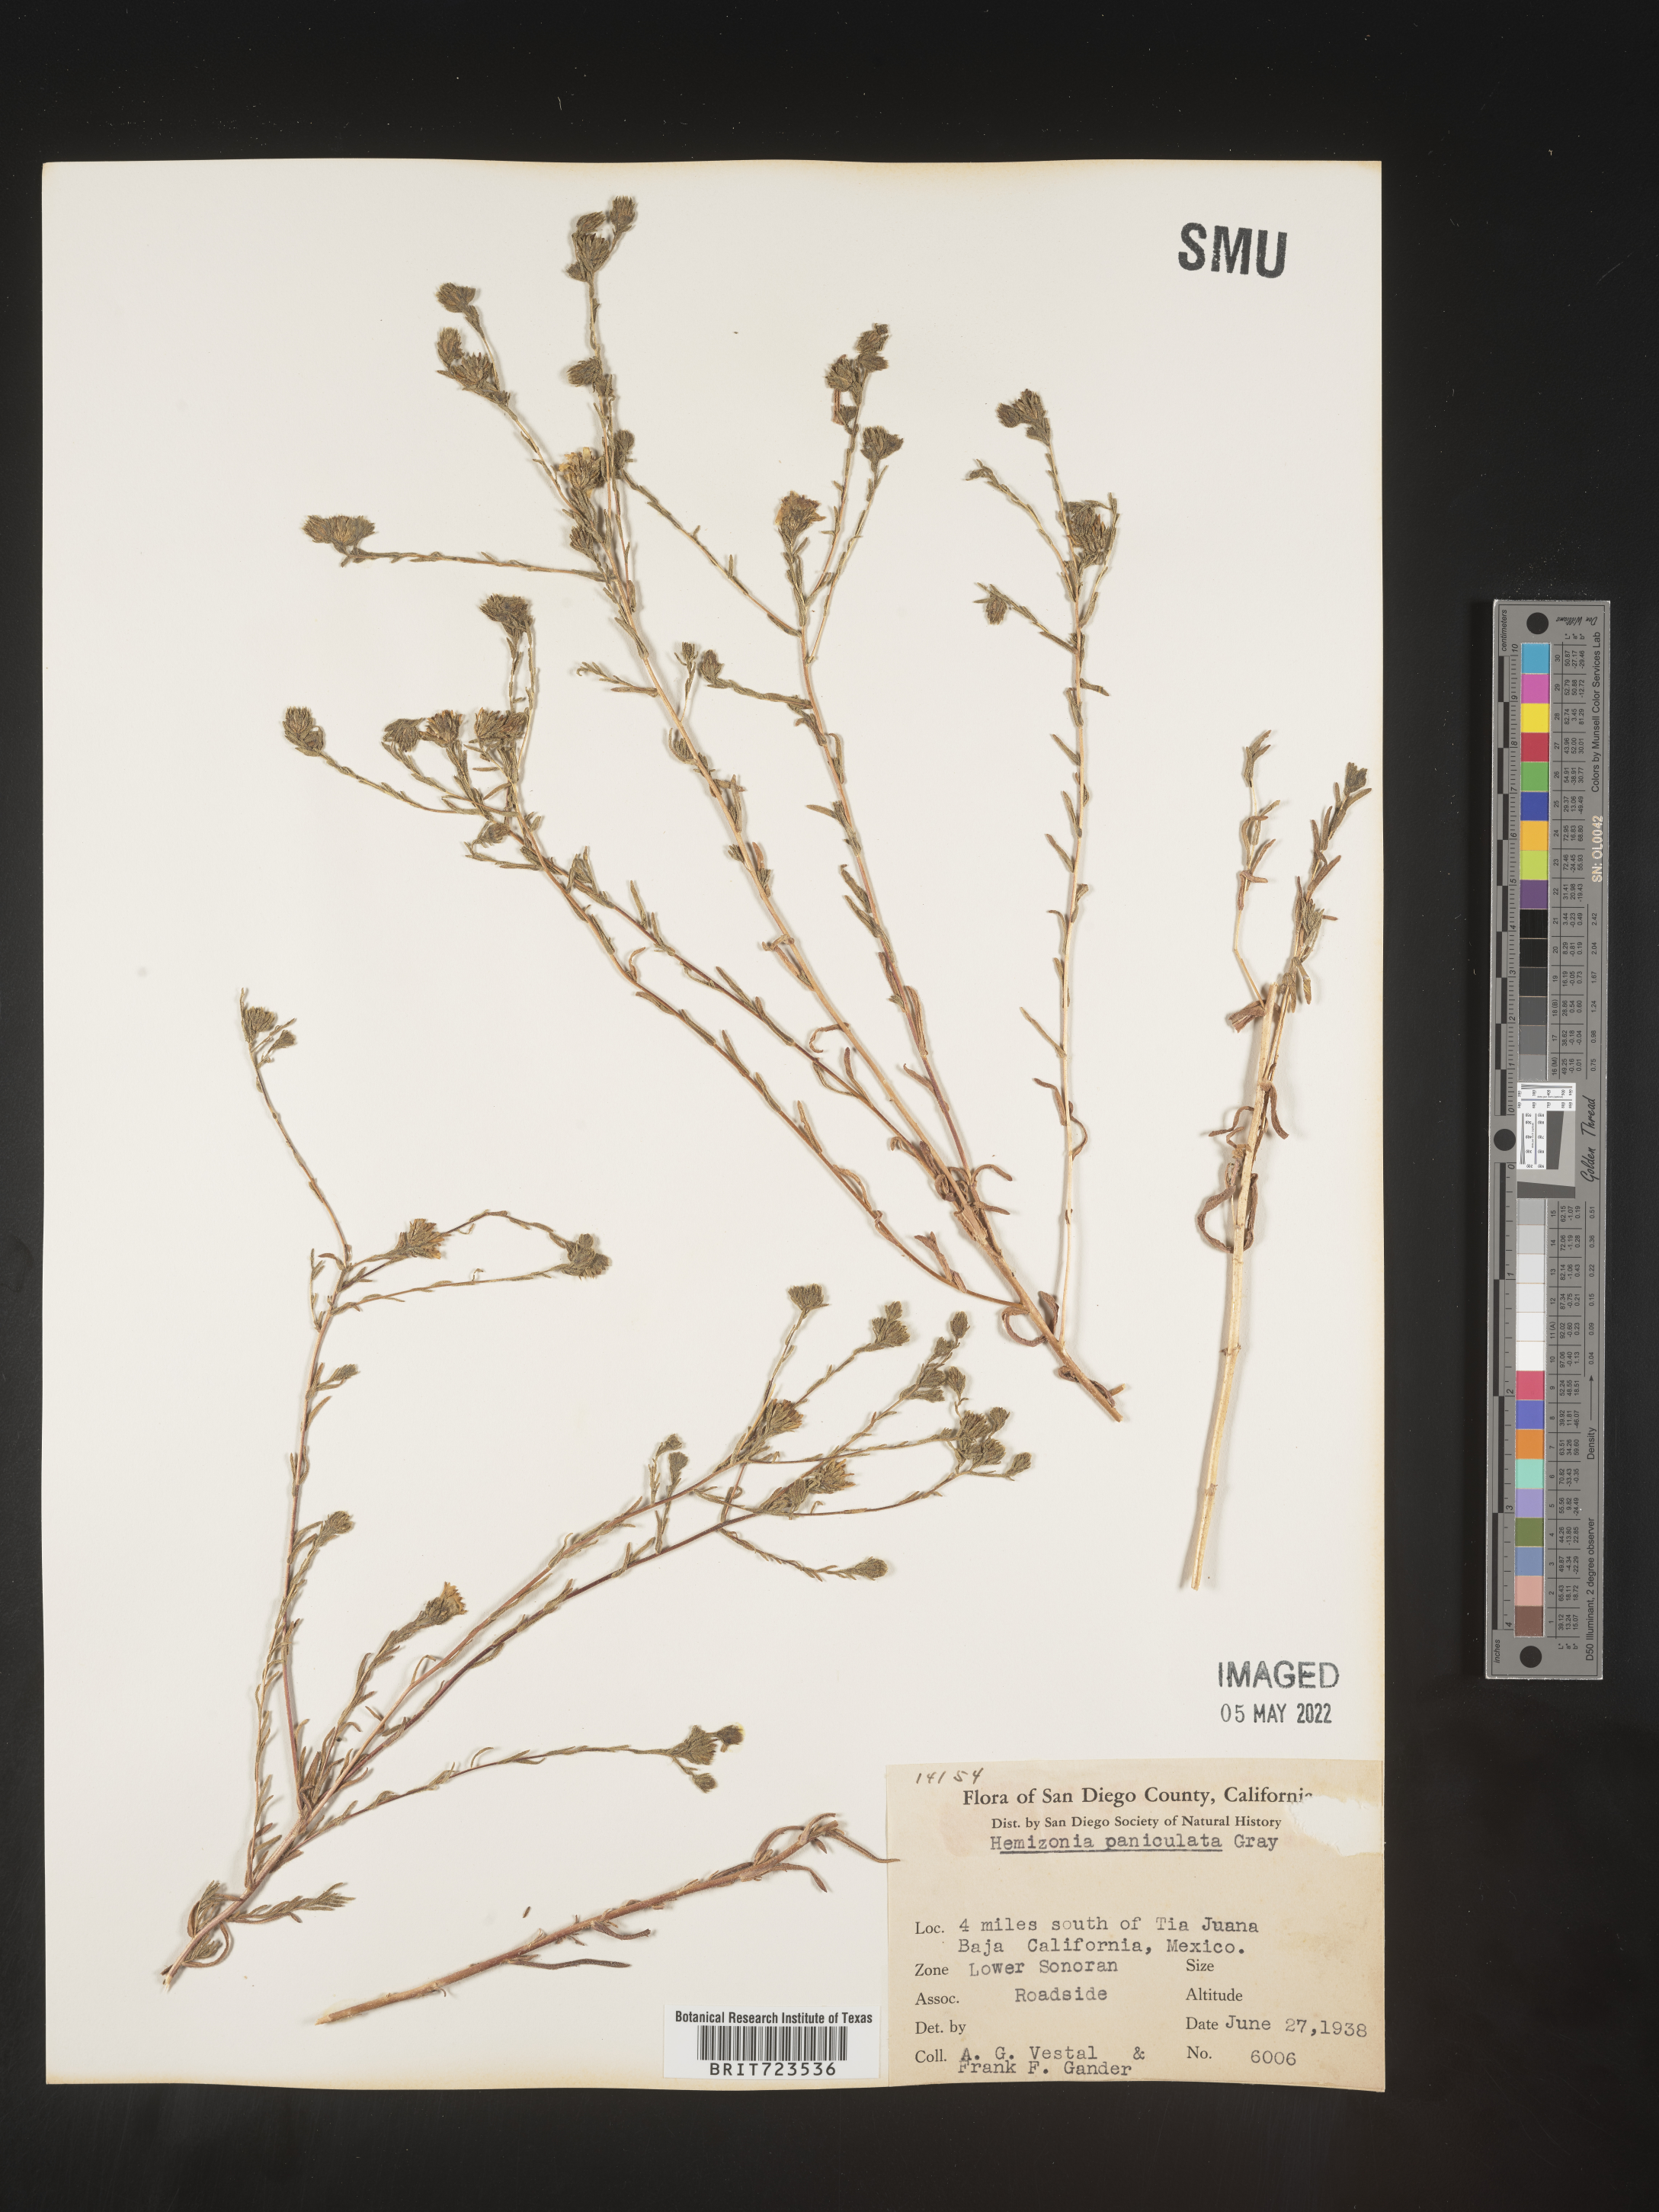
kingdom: Plantae
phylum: Tracheophyta
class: Magnoliopsida
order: Asterales
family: Asteraceae
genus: Hemizonia
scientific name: Hemizonia
